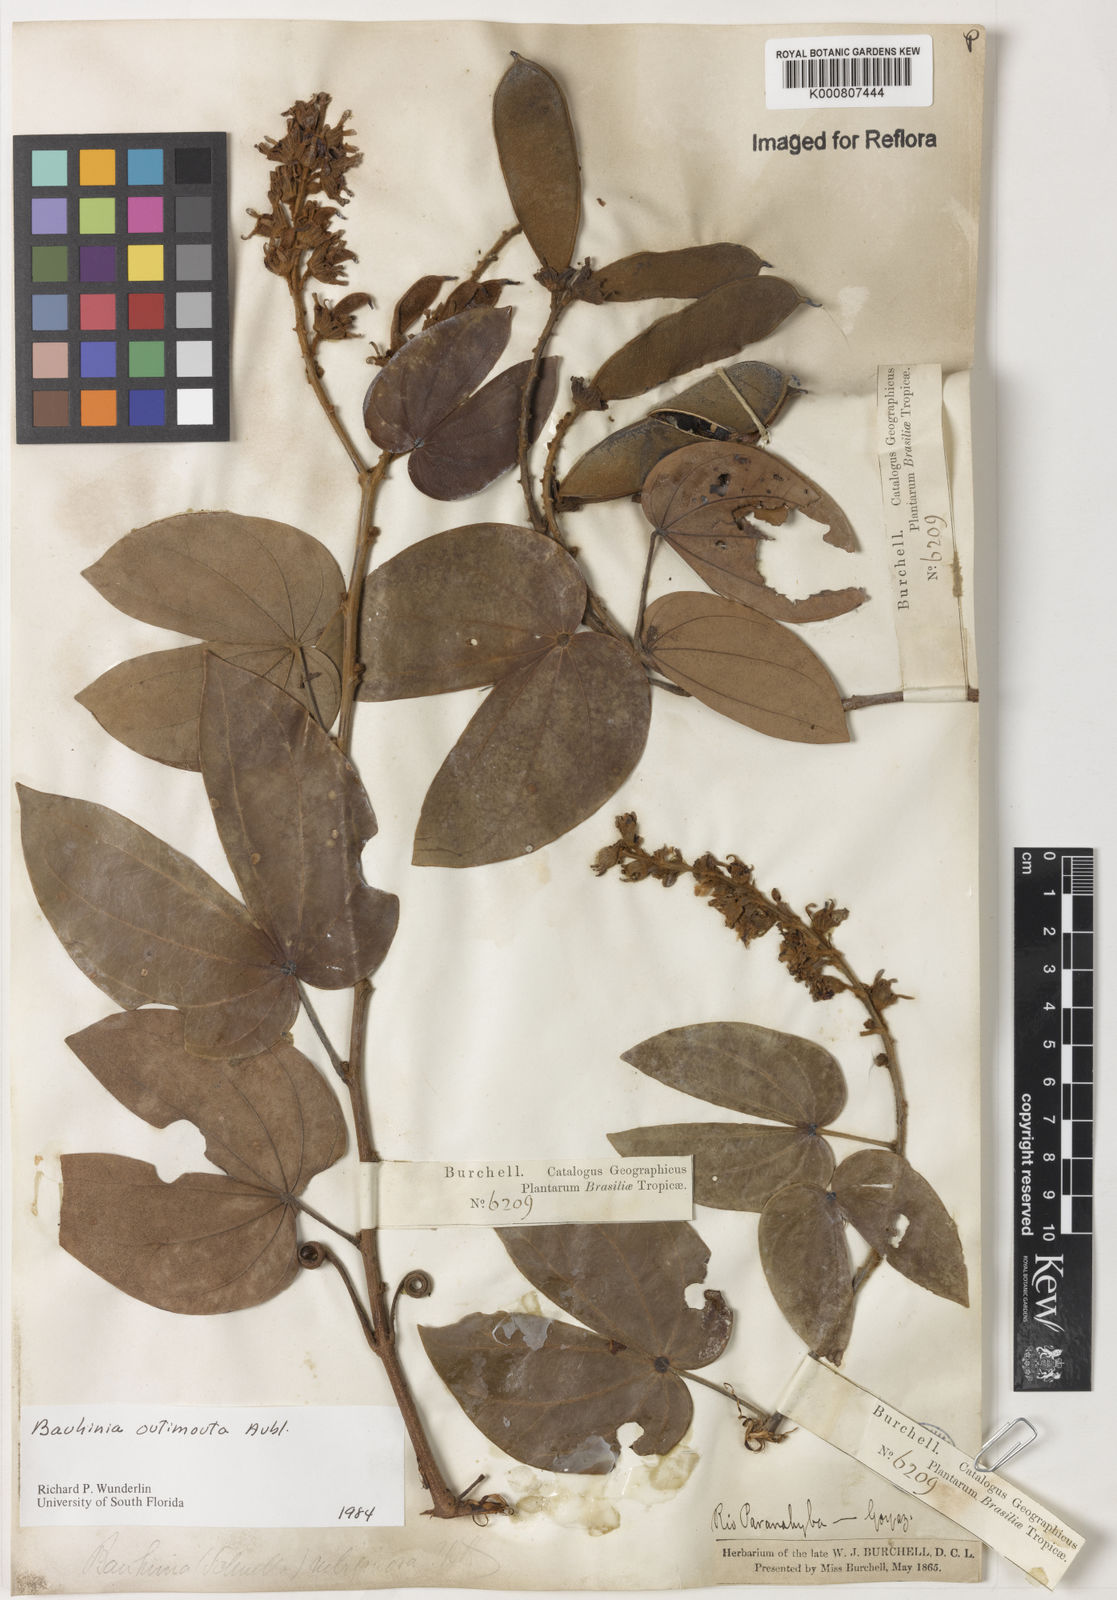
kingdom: Plantae
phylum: Tracheophyta
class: Magnoliopsida
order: Fabales
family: Fabaceae
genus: Schnella
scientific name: Schnella outimouta
